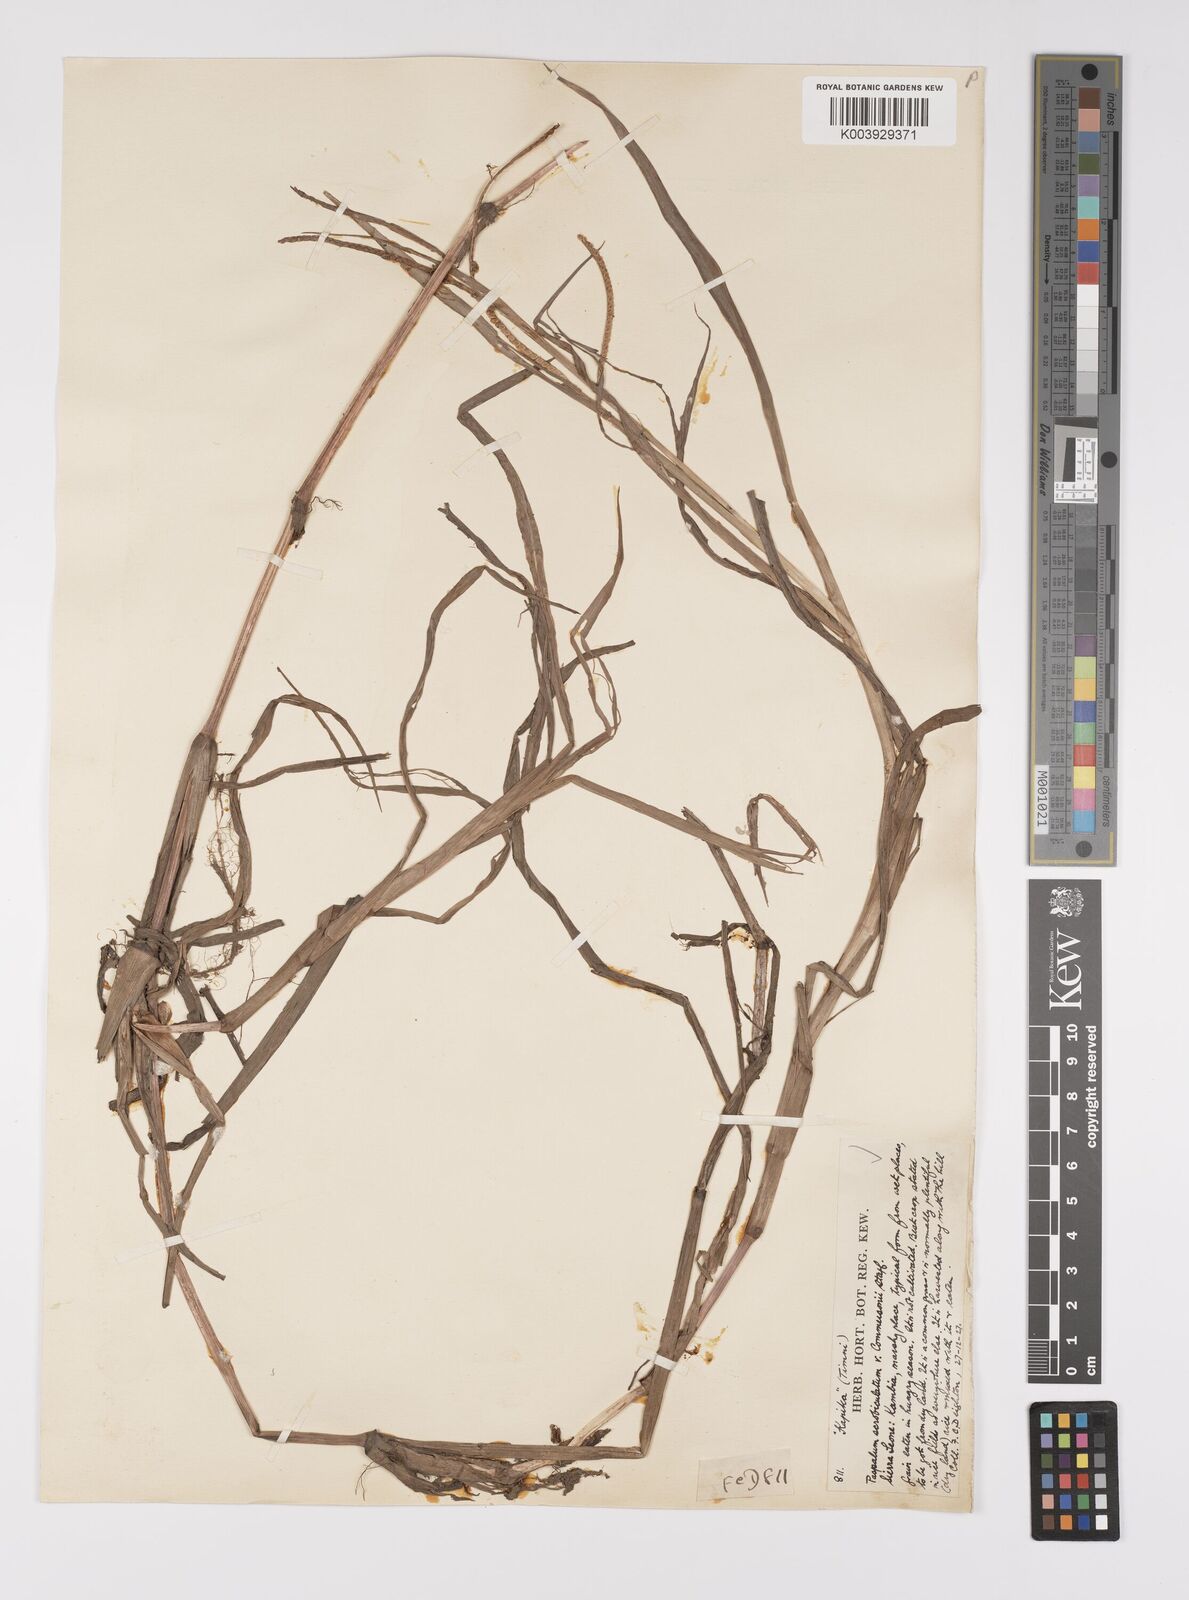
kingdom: Plantae
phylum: Tracheophyta
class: Liliopsida
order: Poales
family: Poaceae
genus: Paspalum
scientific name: Paspalum scrobiculatum
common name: Kodo millet
